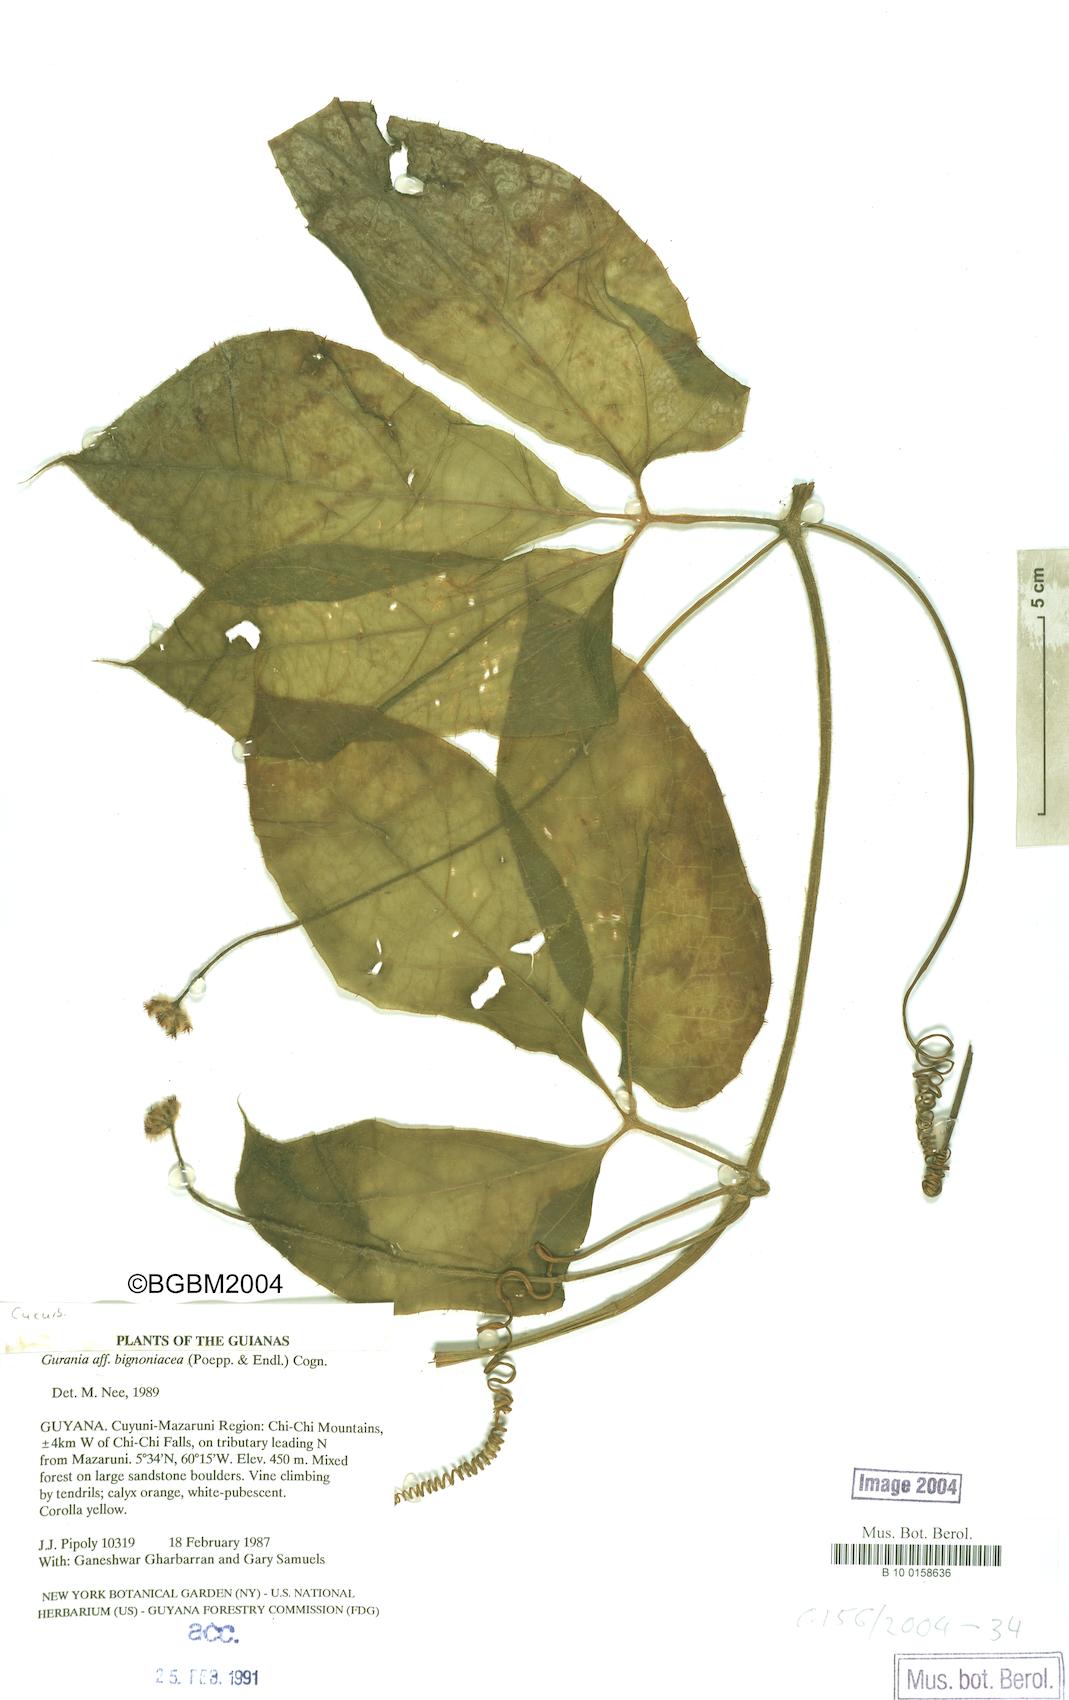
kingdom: Plantae
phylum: Tracheophyta
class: Magnoliopsida
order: Cucurbitales
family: Cucurbitaceae
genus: Gurania
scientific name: Gurania bignoniacea
